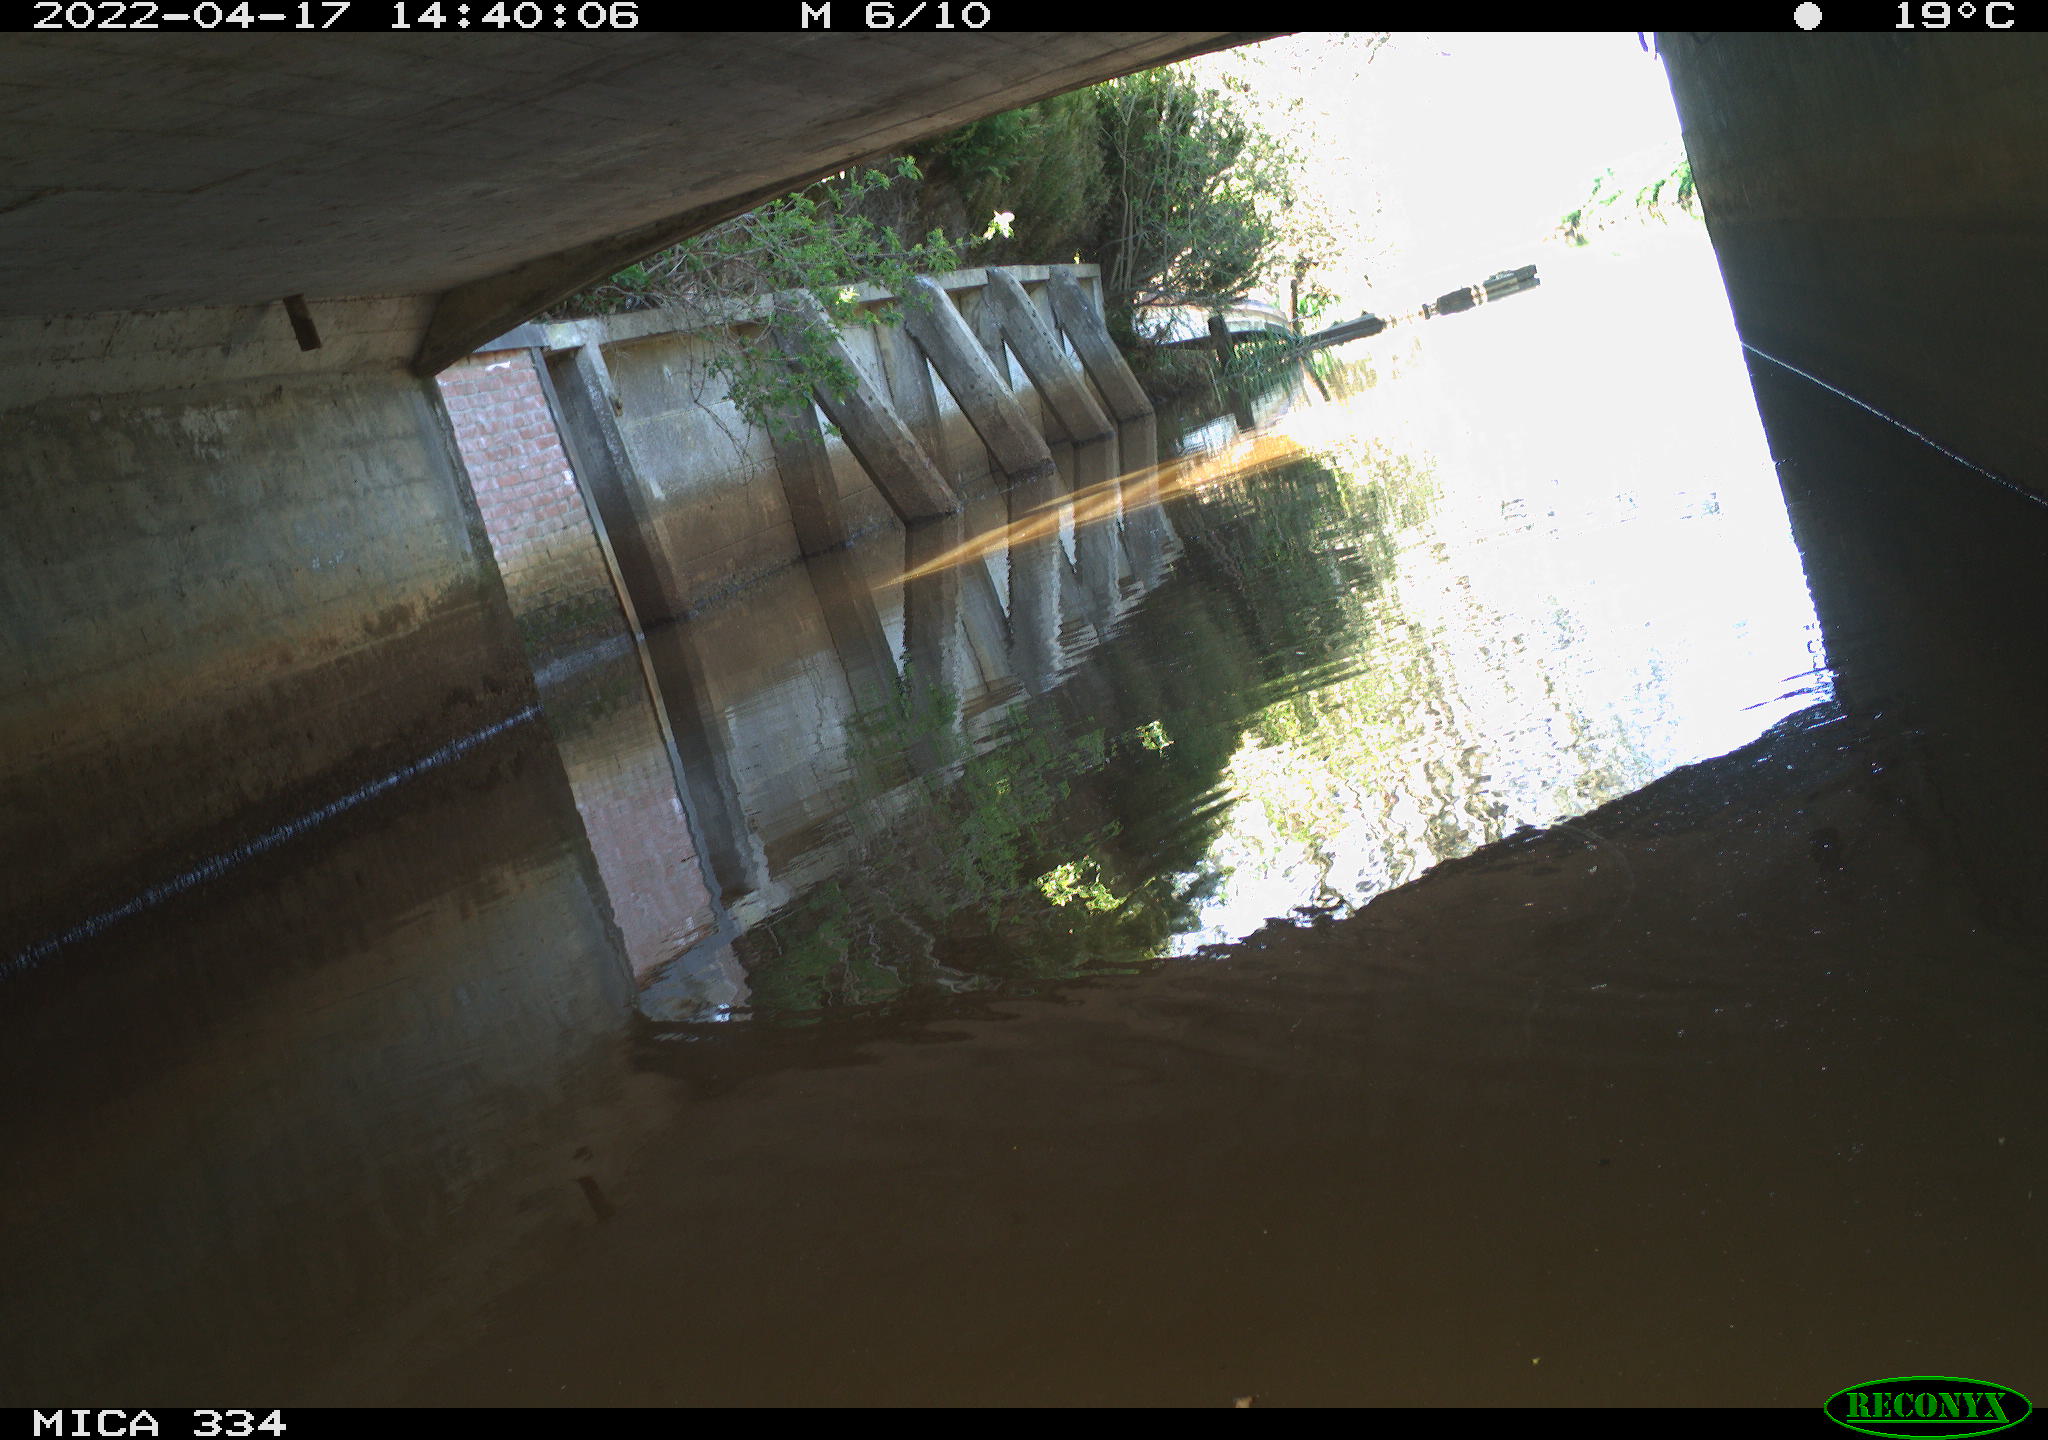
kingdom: Animalia
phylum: Chordata
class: Aves
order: Gruiformes
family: Rallidae
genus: Gallinula
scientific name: Gallinula chloropus
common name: Common moorhen
